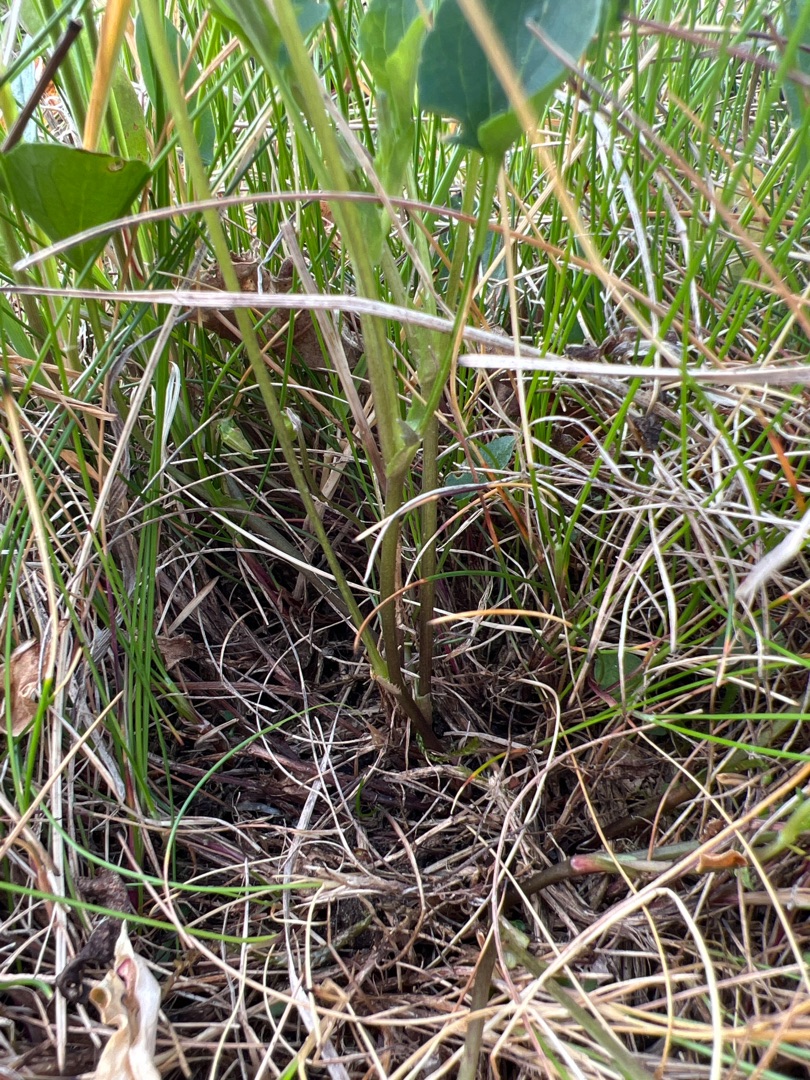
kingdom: Plantae
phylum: Tracheophyta
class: Magnoliopsida
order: Malpighiales
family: Violaceae
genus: Viola
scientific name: Viola canina
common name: Hunde-viol
